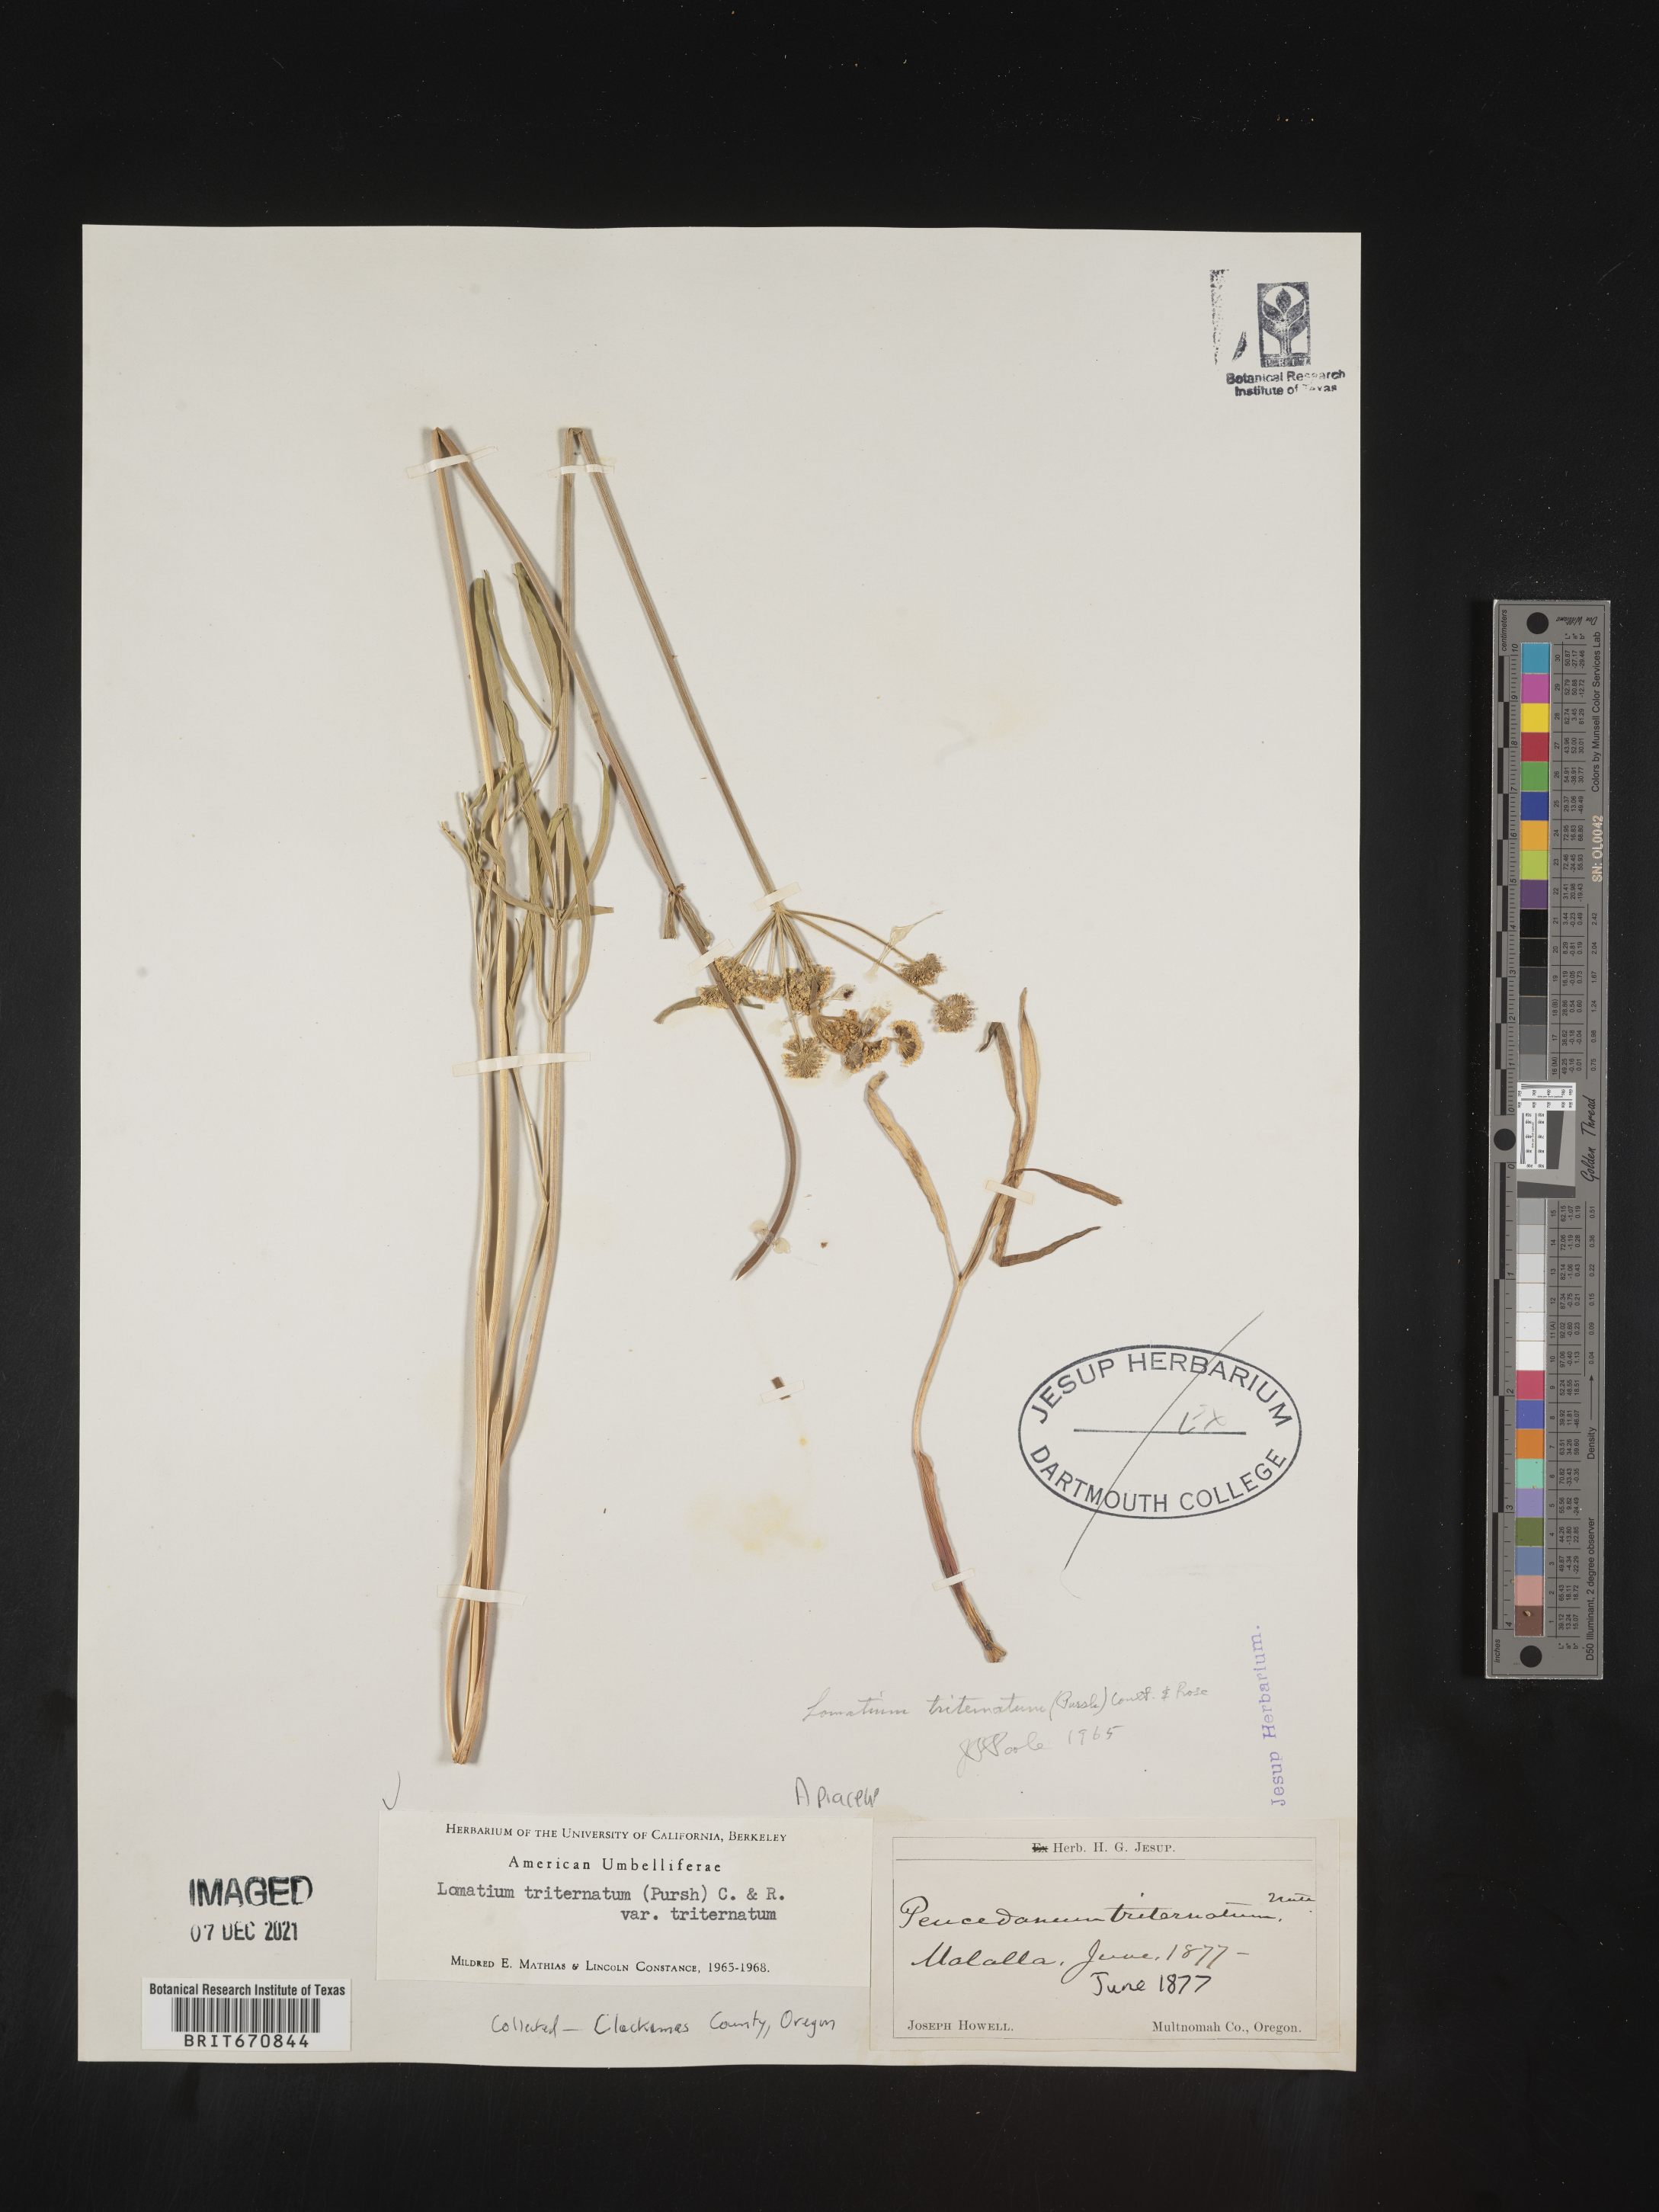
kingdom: Plantae
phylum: Tracheophyta
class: Magnoliopsida
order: Apiales
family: Apiaceae
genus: Lomatium
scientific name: Lomatium triternatum
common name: Ternate lomatium
